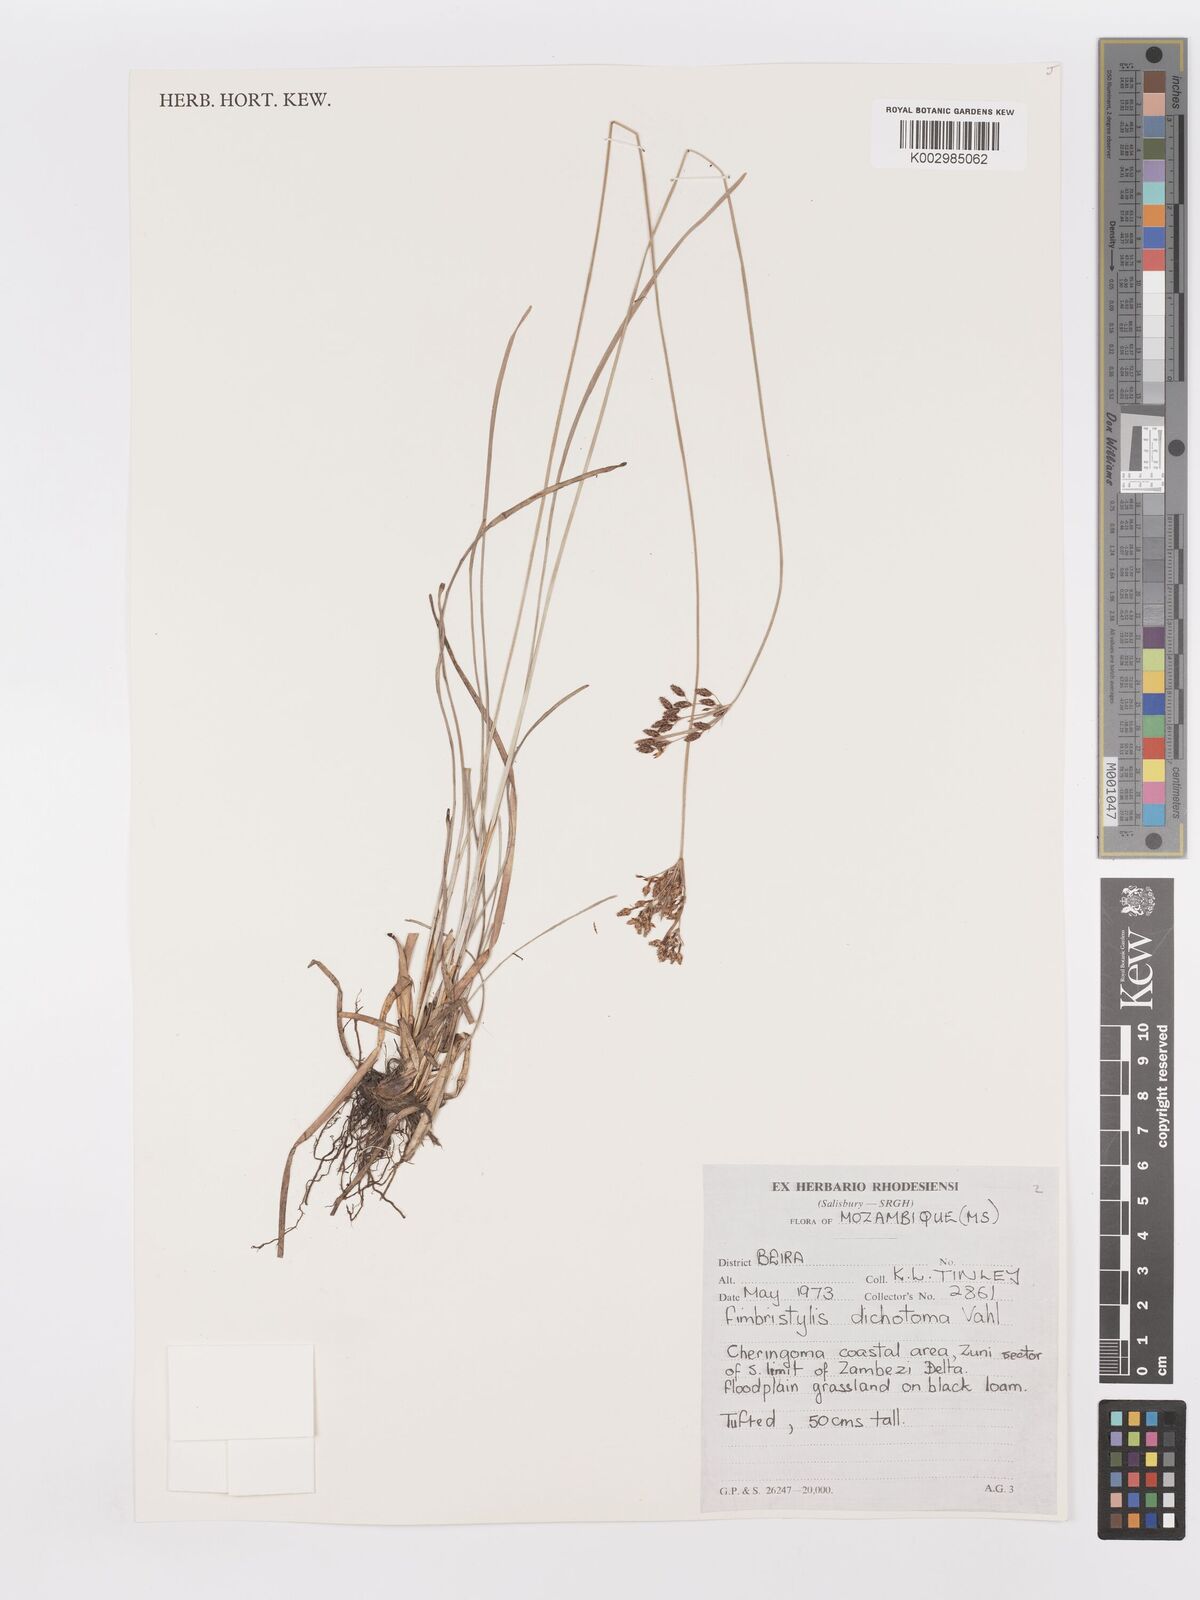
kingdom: Plantae
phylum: Tracheophyta
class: Liliopsida
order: Poales
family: Cyperaceae
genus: Fimbristylis
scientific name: Fimbristylis dichotoma
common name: Forked fimbry
